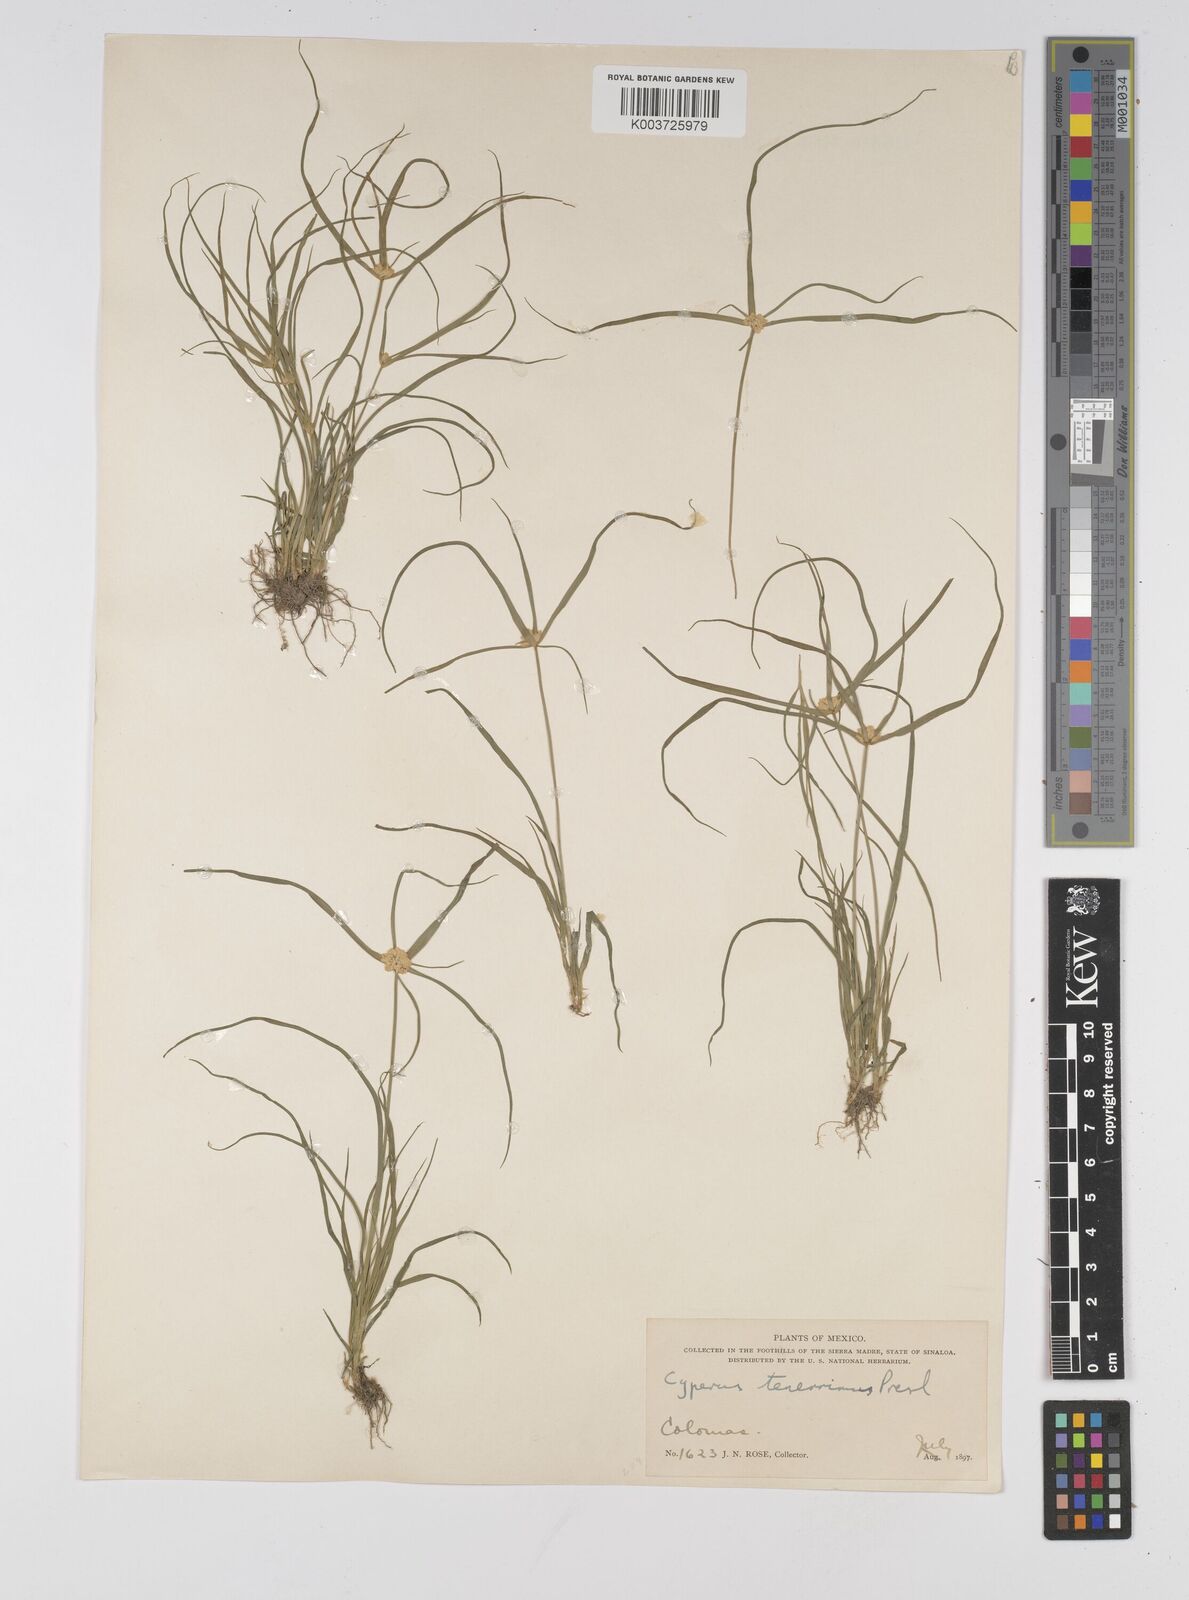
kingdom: Plantae
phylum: Tracheophyta
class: Liliopsida
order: Poales
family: Cyperaceae
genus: Cyperus
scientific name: Cyperus tenerrimus
